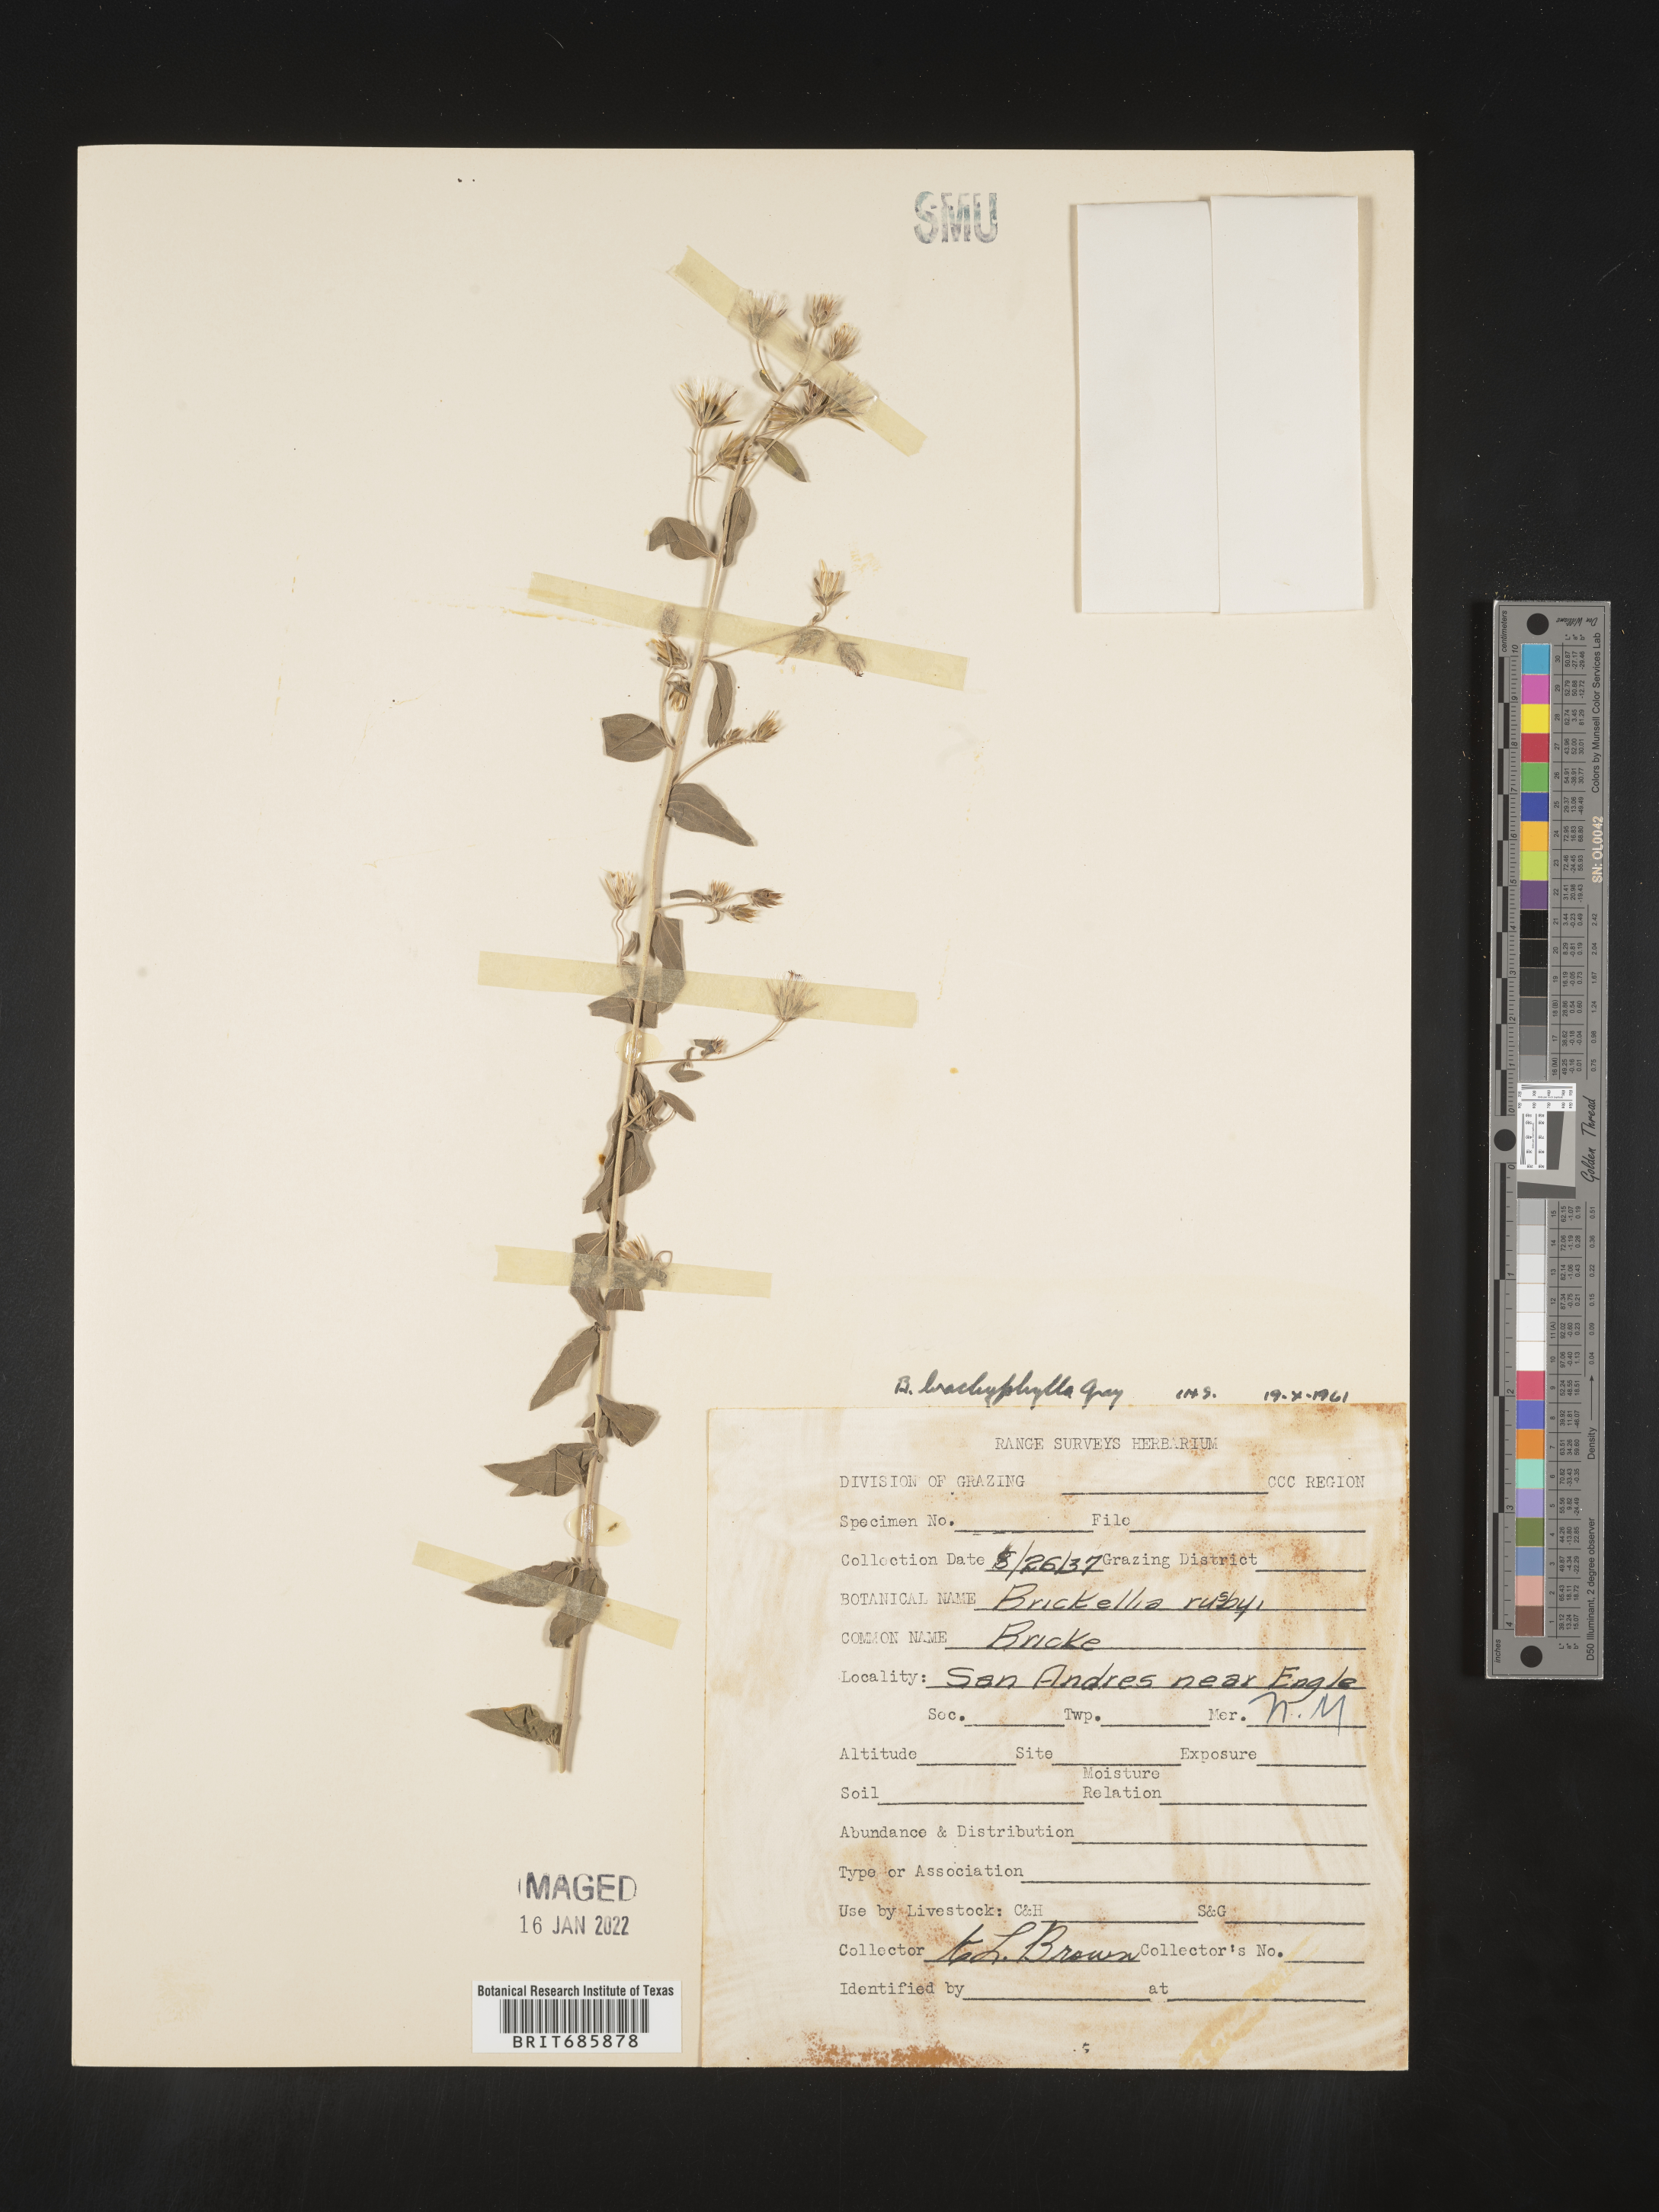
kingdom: Plantae
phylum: Tracheophyta
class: Magnoliopsida
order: Asterales
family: Asteraceae
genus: Brickellia
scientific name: Brickellia brachyphylla
